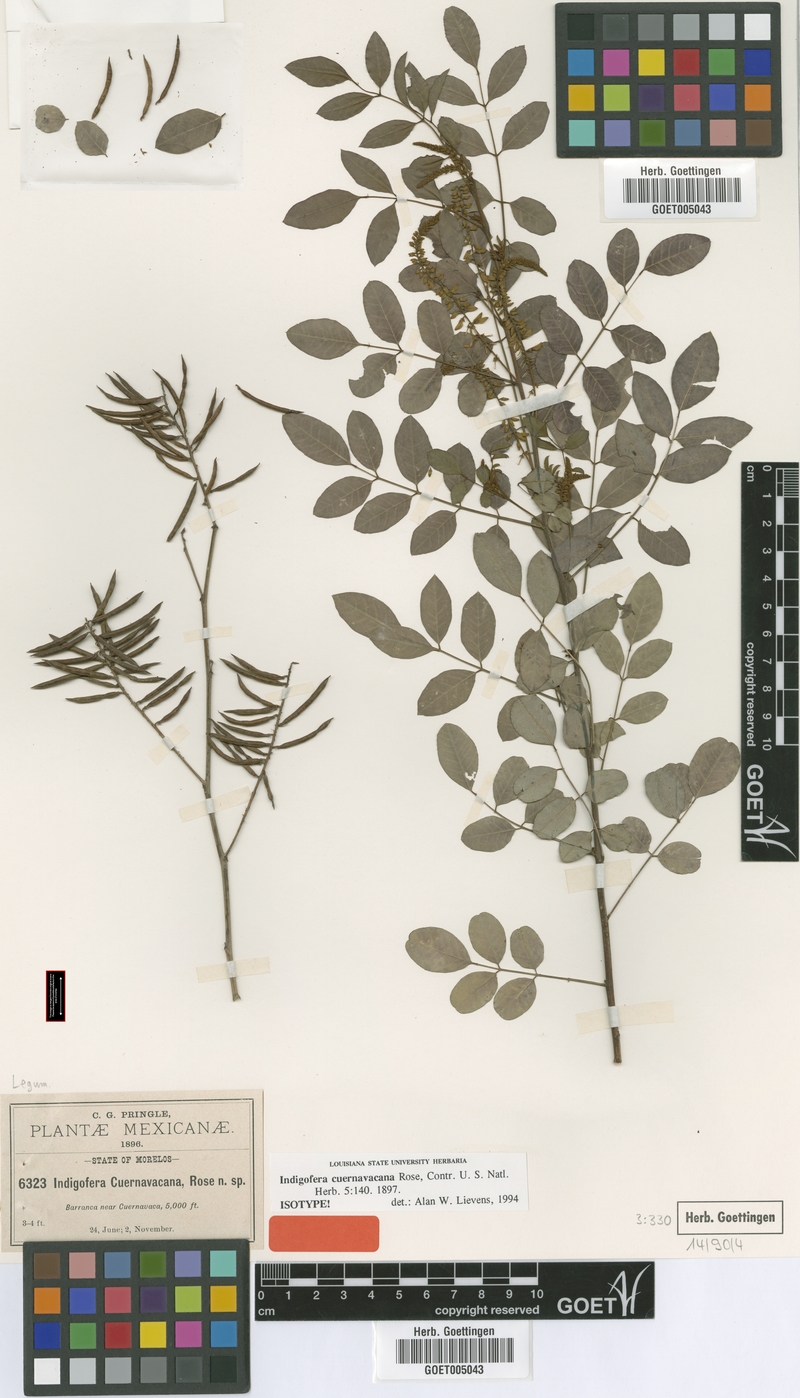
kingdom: Plantae
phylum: Tracheophyta
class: Magnoliopsida
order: Fabales
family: Fabaceae
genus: Indigofera
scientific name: Indigofera cuernavacana
